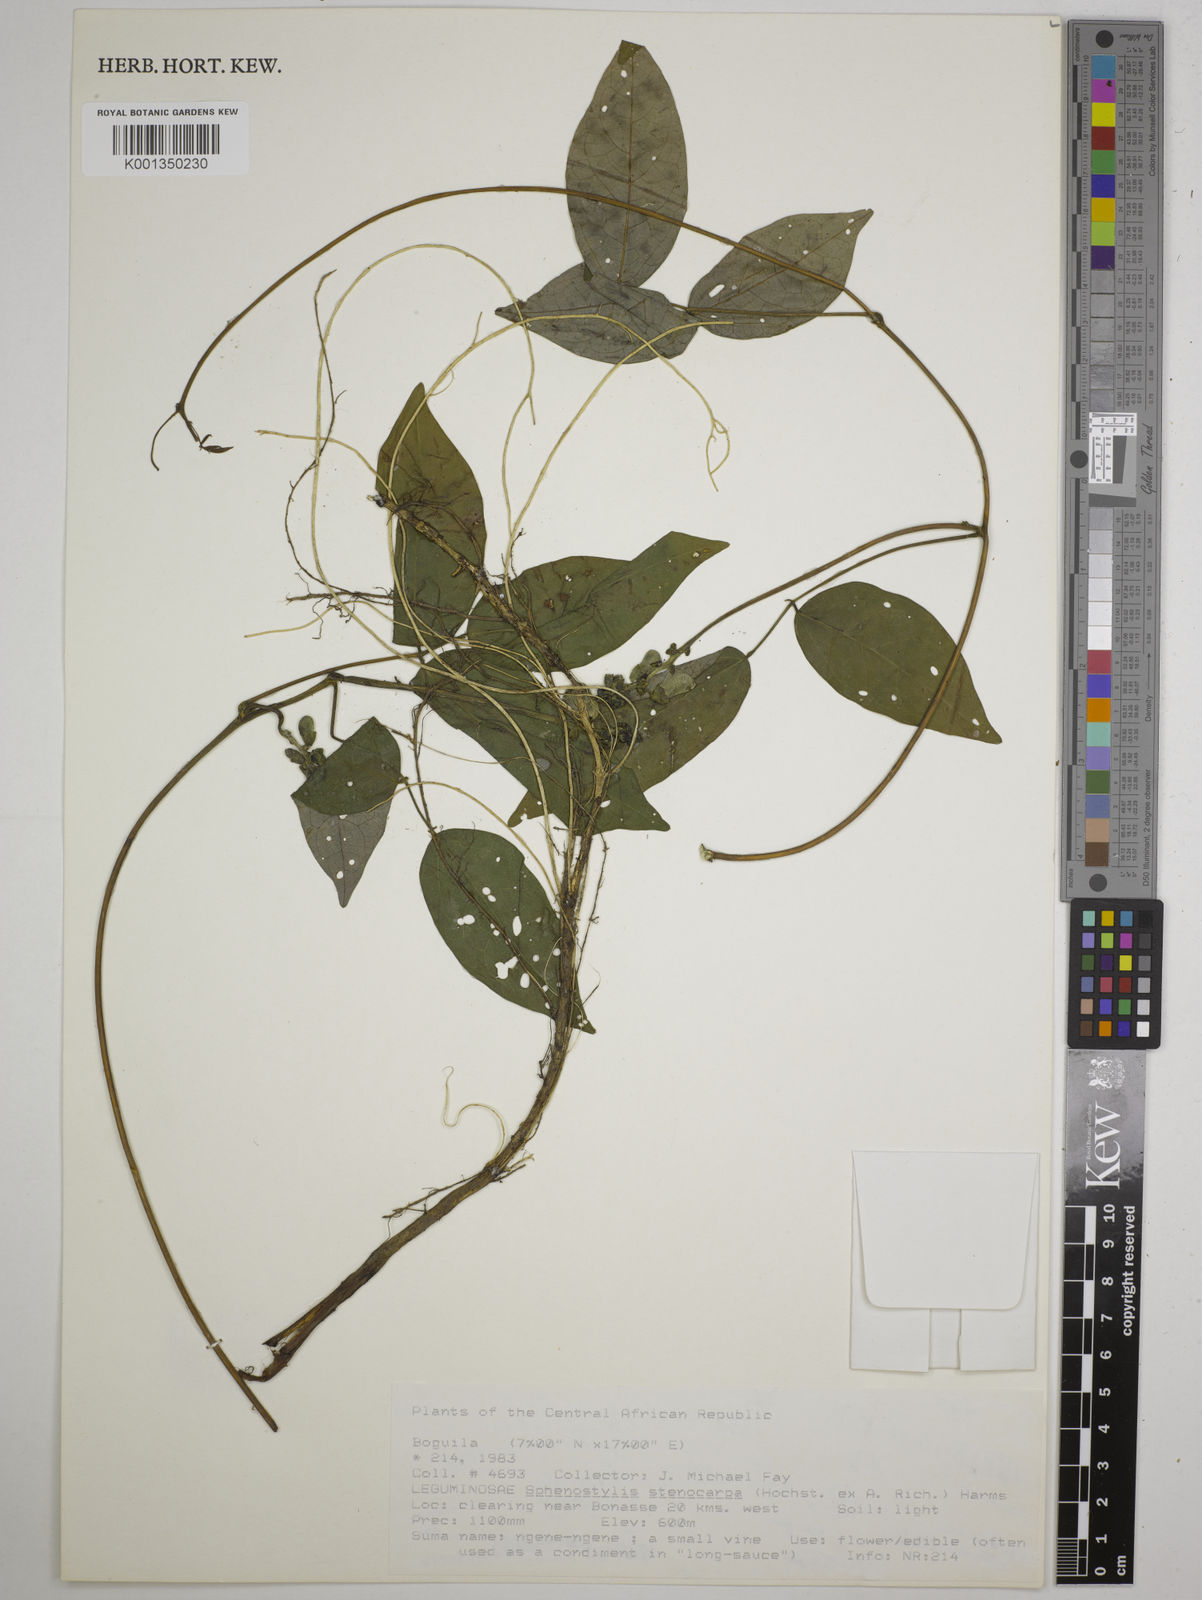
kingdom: Plantae
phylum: Tracheophyta
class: Magnoliopsida
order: Fabales
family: Fabaceae
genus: Sphenostylis
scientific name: Sphenostylis stenocarpa
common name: Yam-pea
